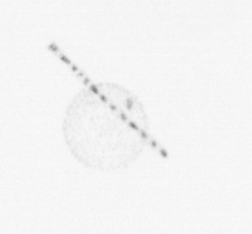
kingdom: Chromista
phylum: Ochrophyta
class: Bacillariophyceae
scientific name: Bacillariophyceae
